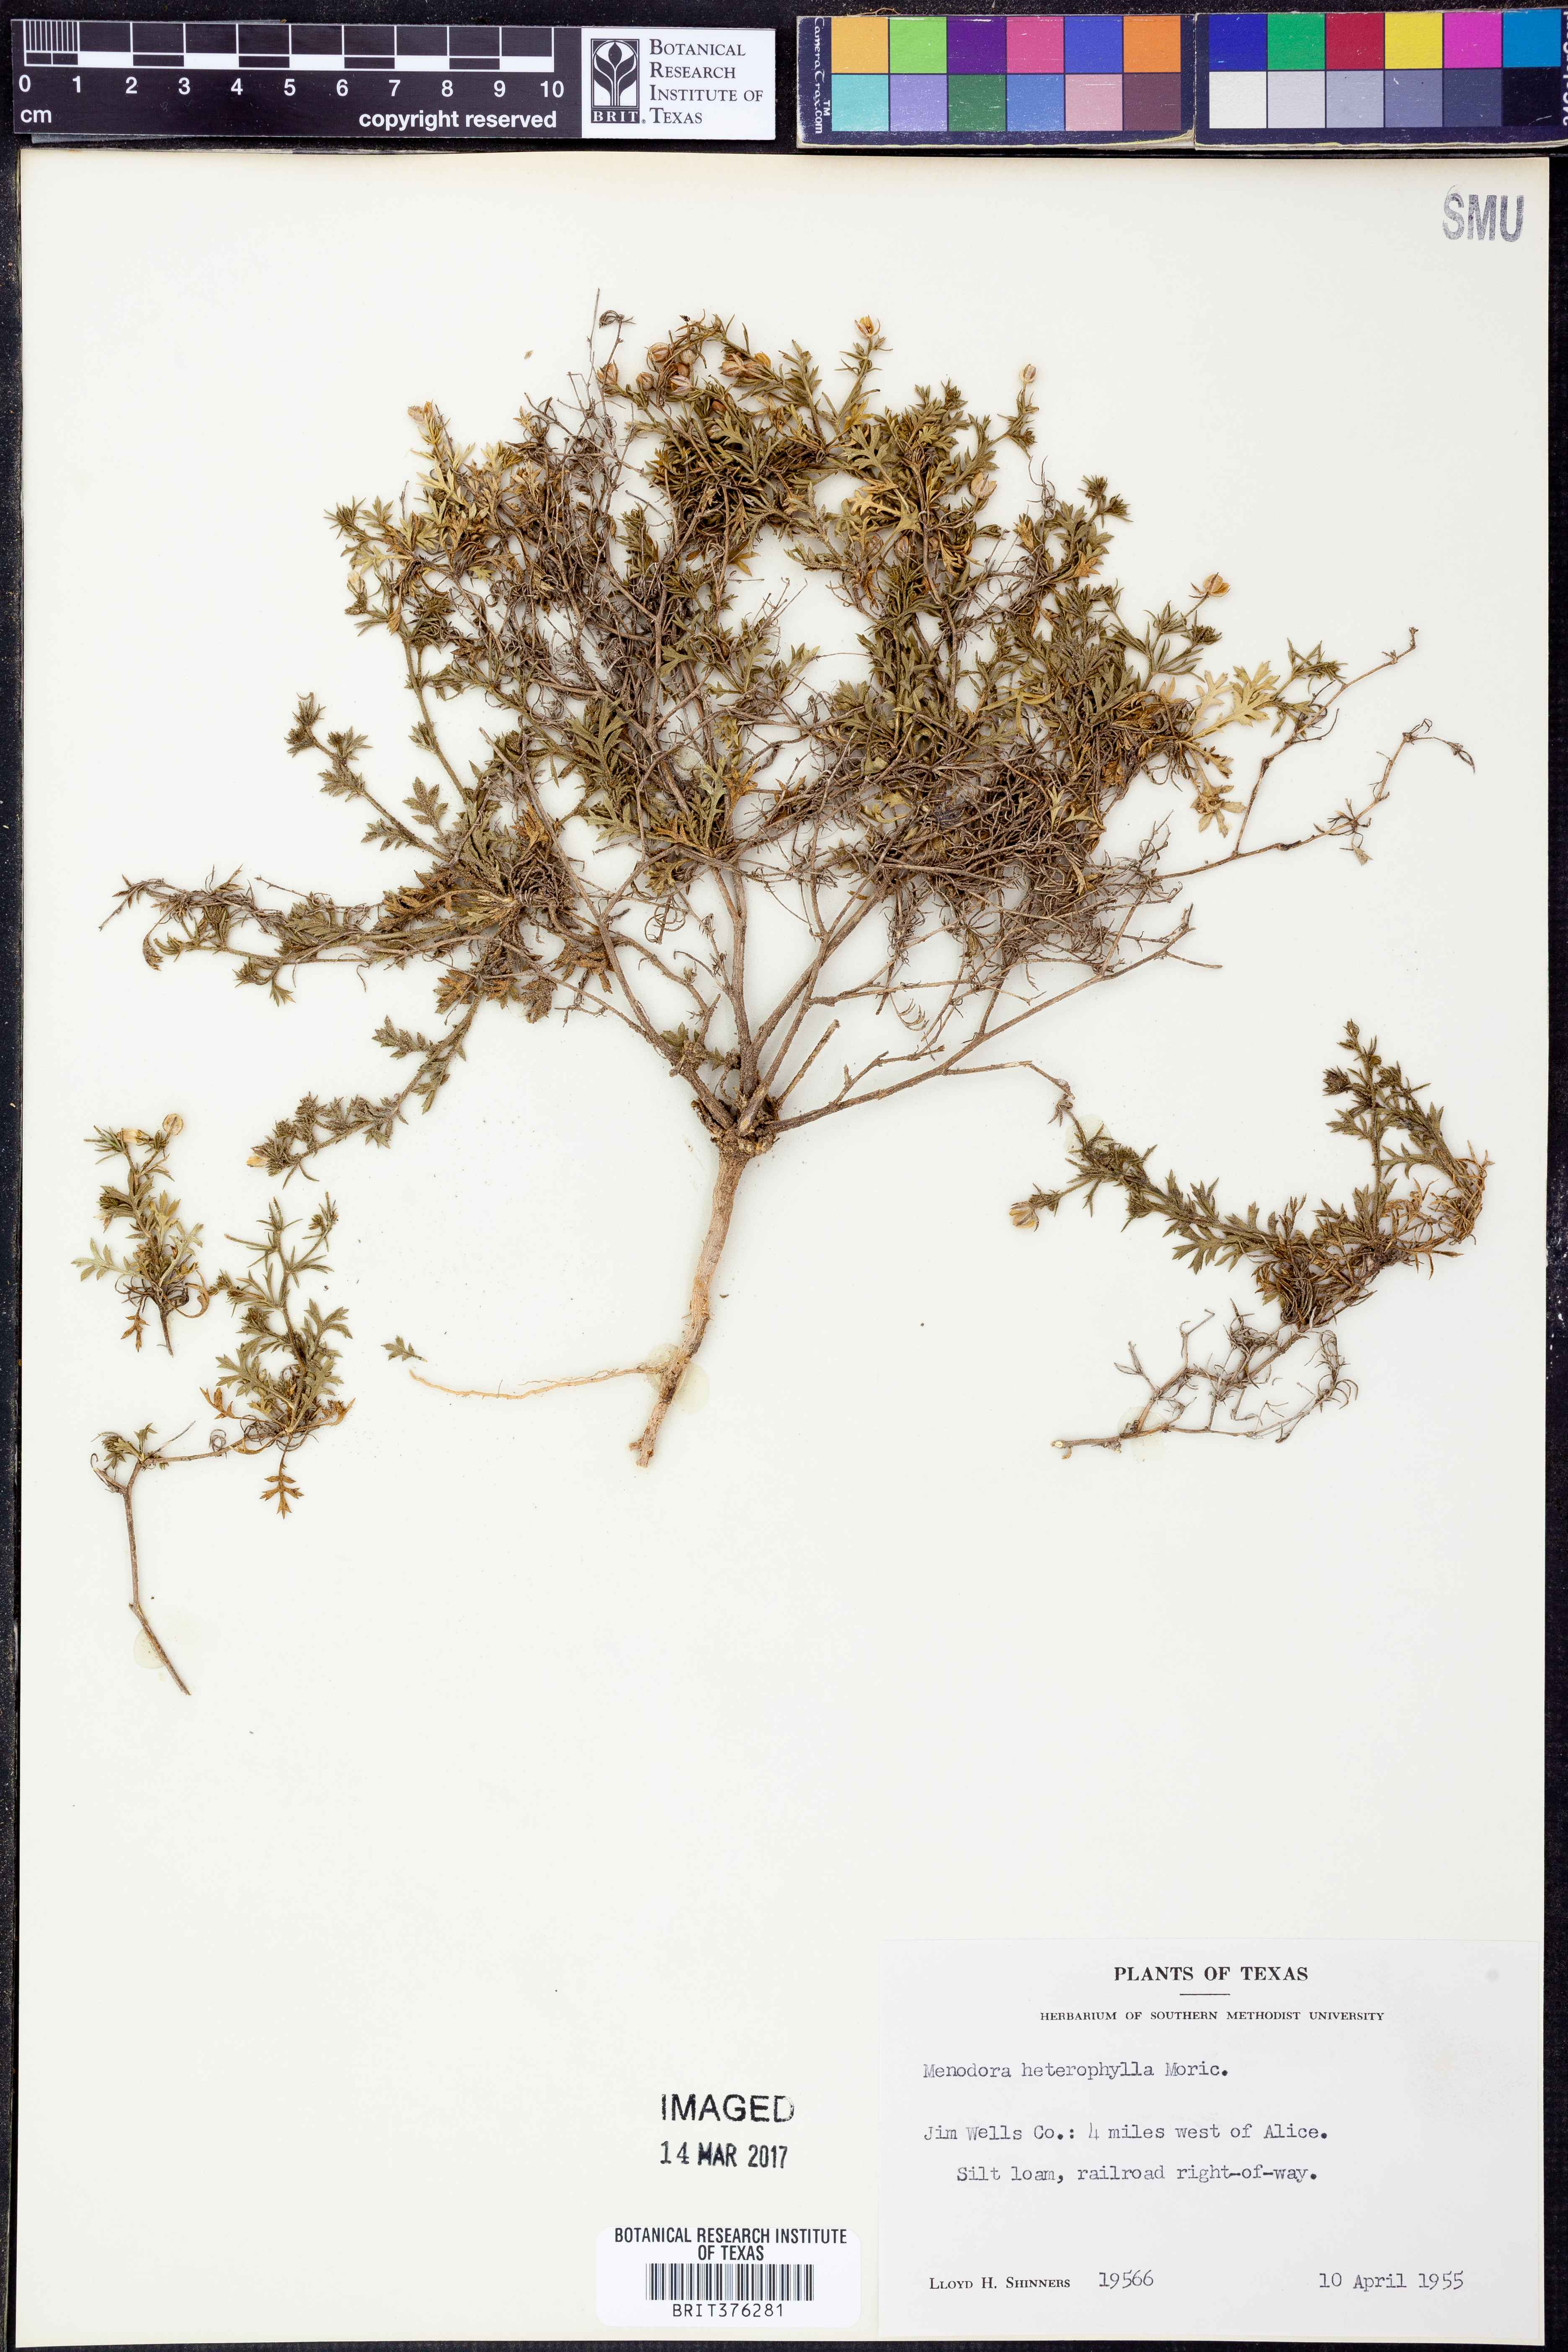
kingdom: Plantae
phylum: Tracheophyta
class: Magnoliopsida
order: Lamiales
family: Oleaceae
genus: Menodora
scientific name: Menodora heterophylla
